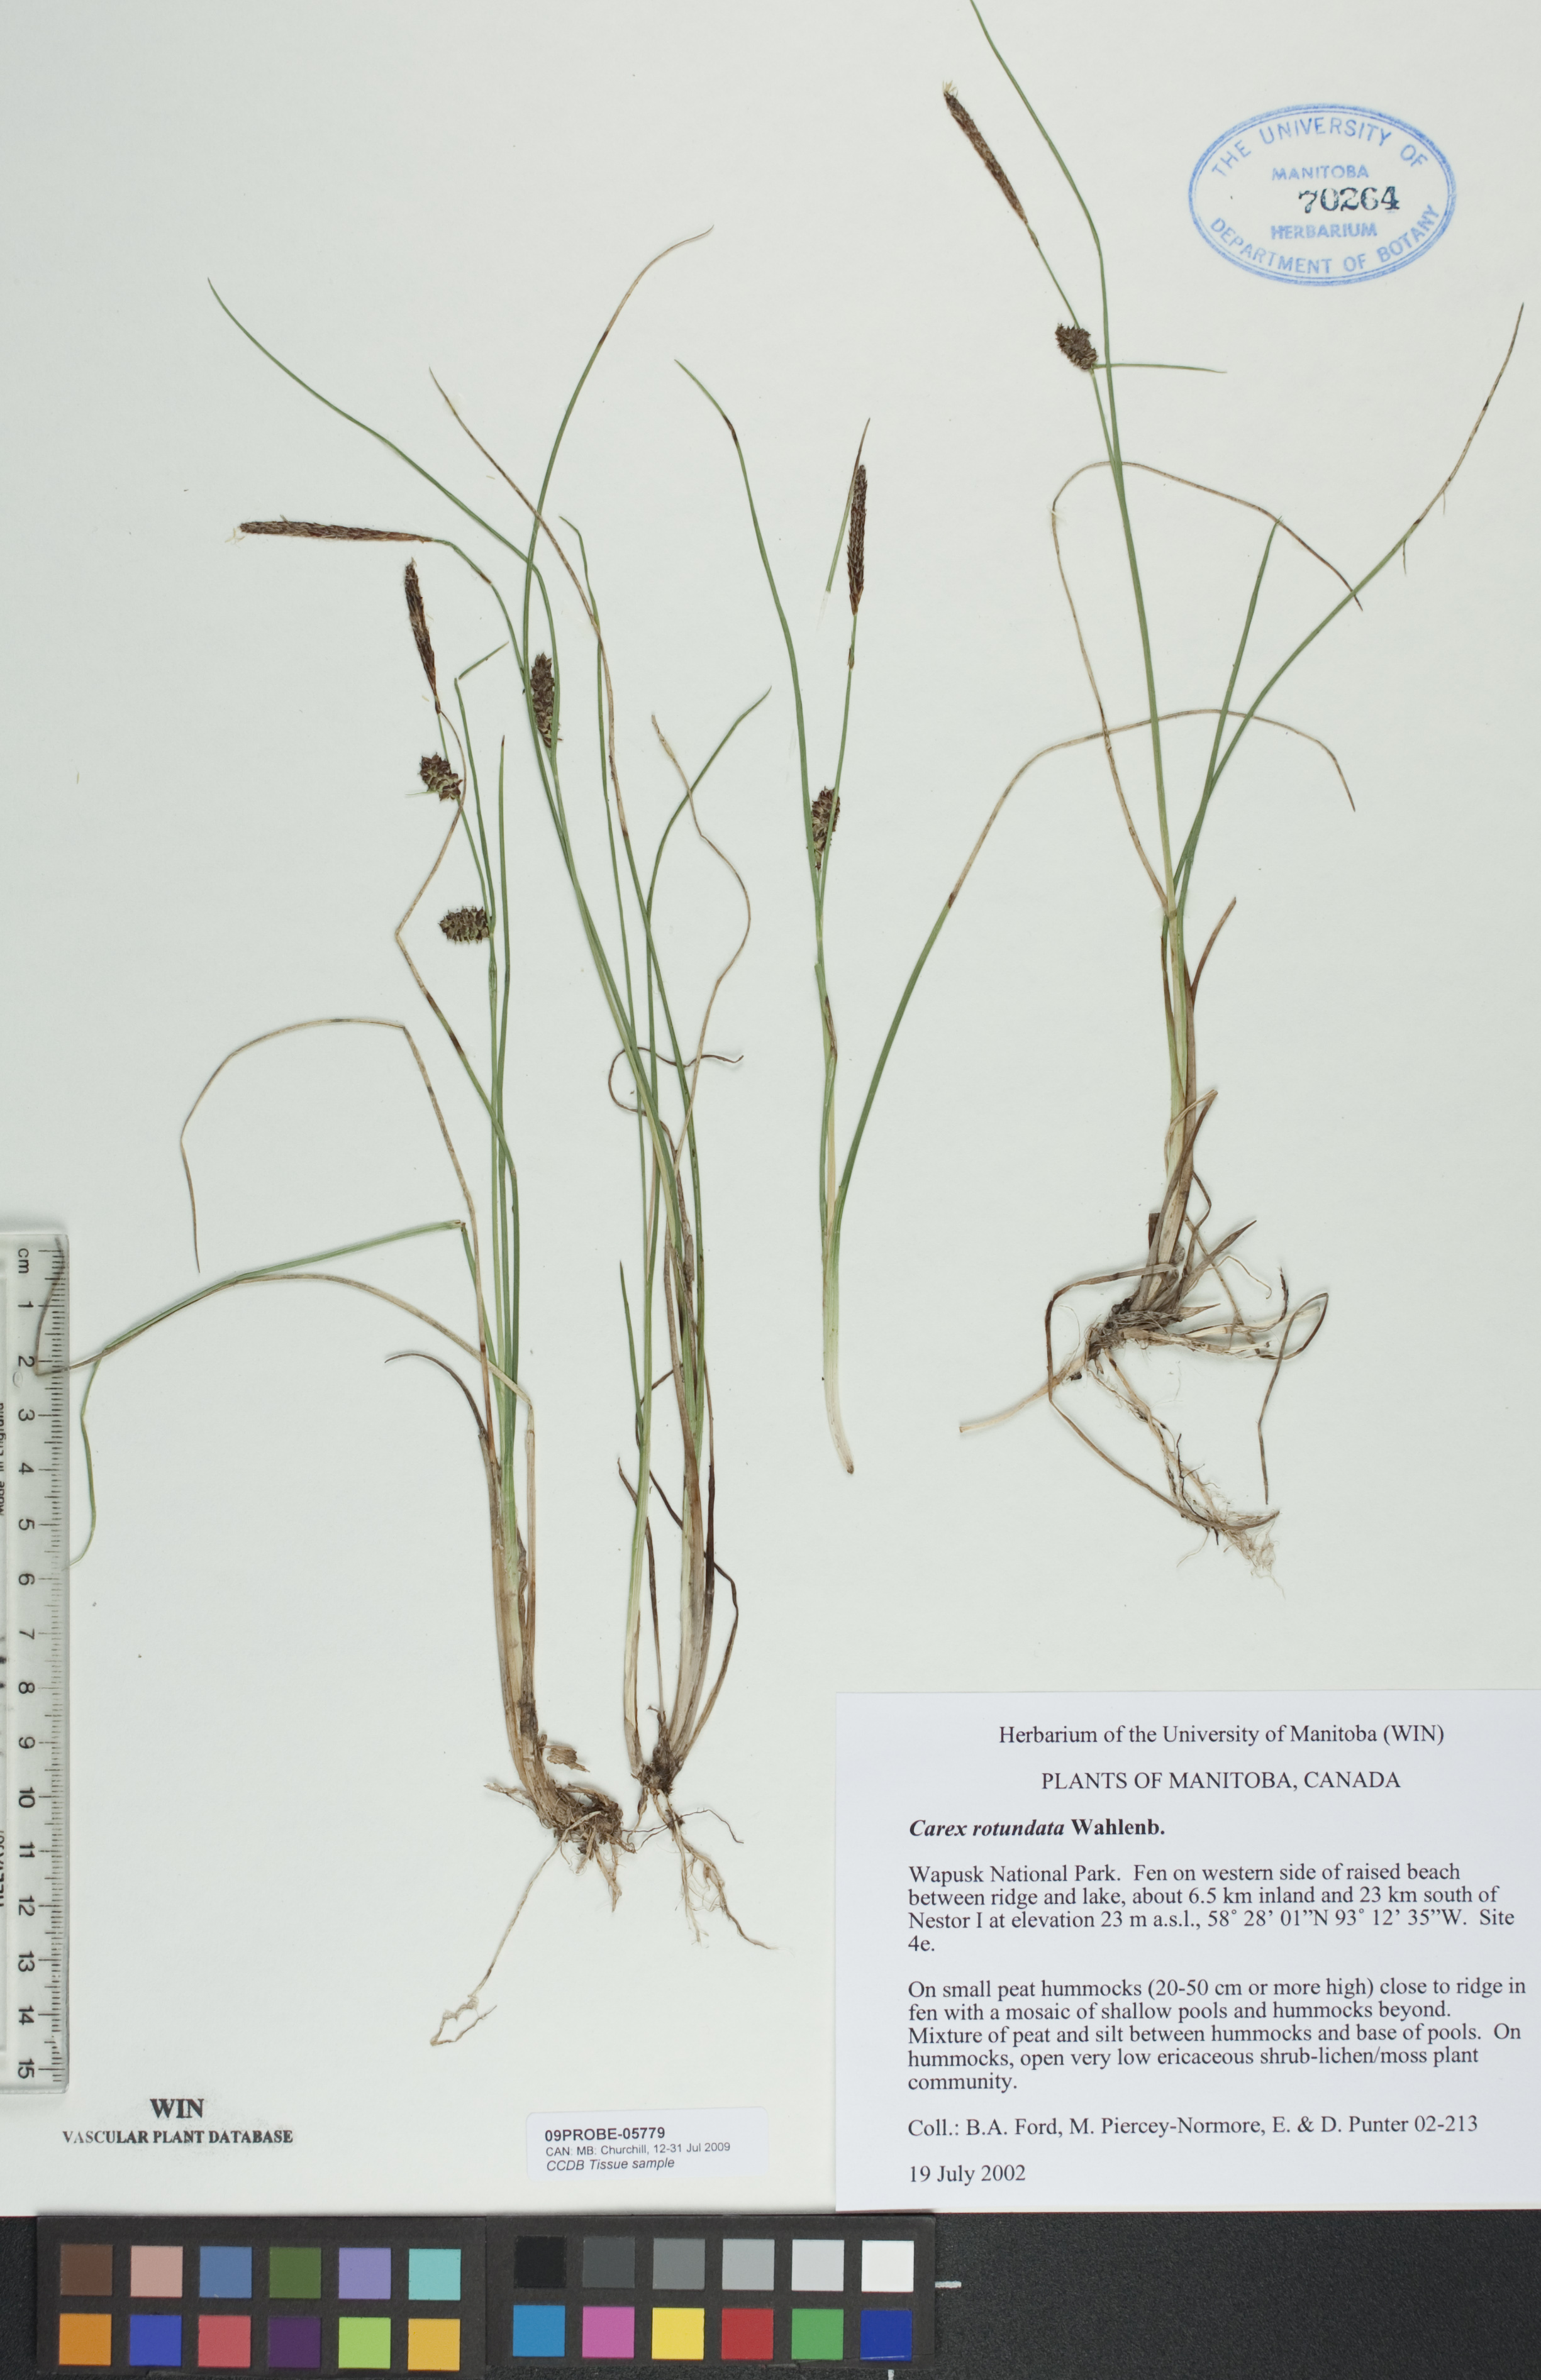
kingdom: Plantae
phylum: Tracheophyta
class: Liliopsida
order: Poales
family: Cyperaceae
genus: Carex
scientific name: Carex rotundata
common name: Round-fruited sedge
